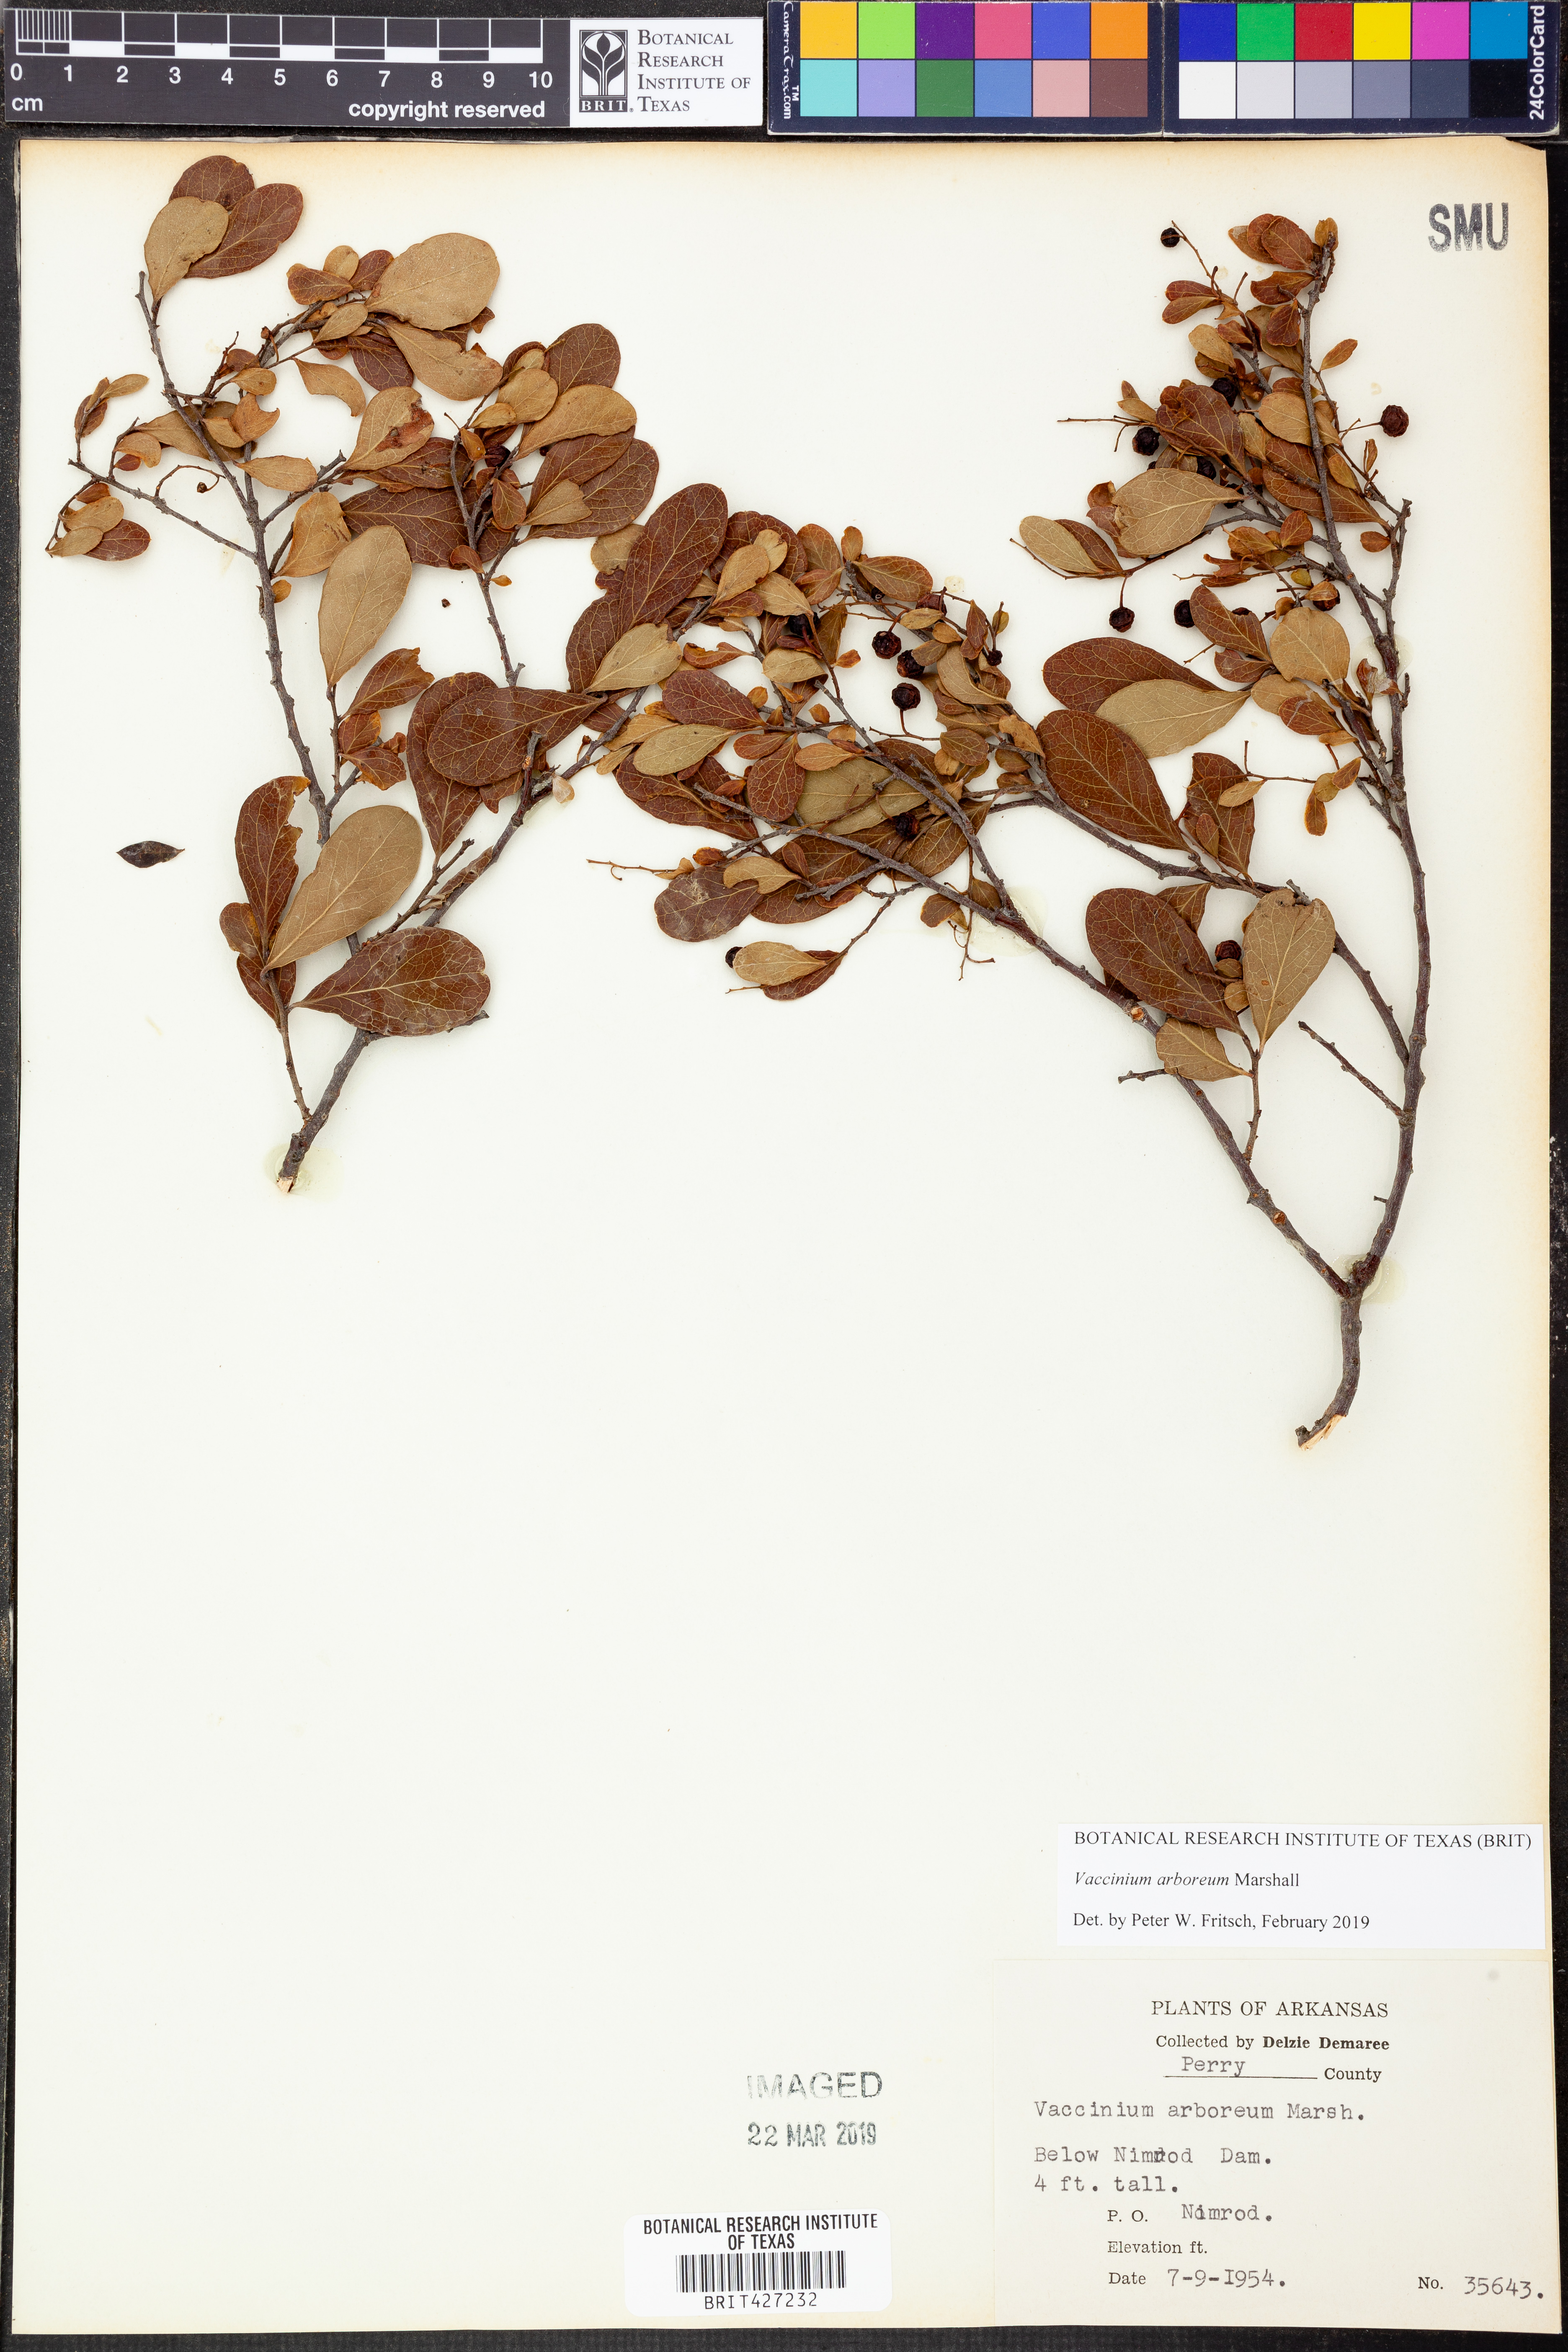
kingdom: Plantae
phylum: Tracheophyta
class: Magnoliopsida
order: Ericales
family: Ericaceae
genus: Vaccinium
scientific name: Vaccinium arboreum
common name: Farkleberry
